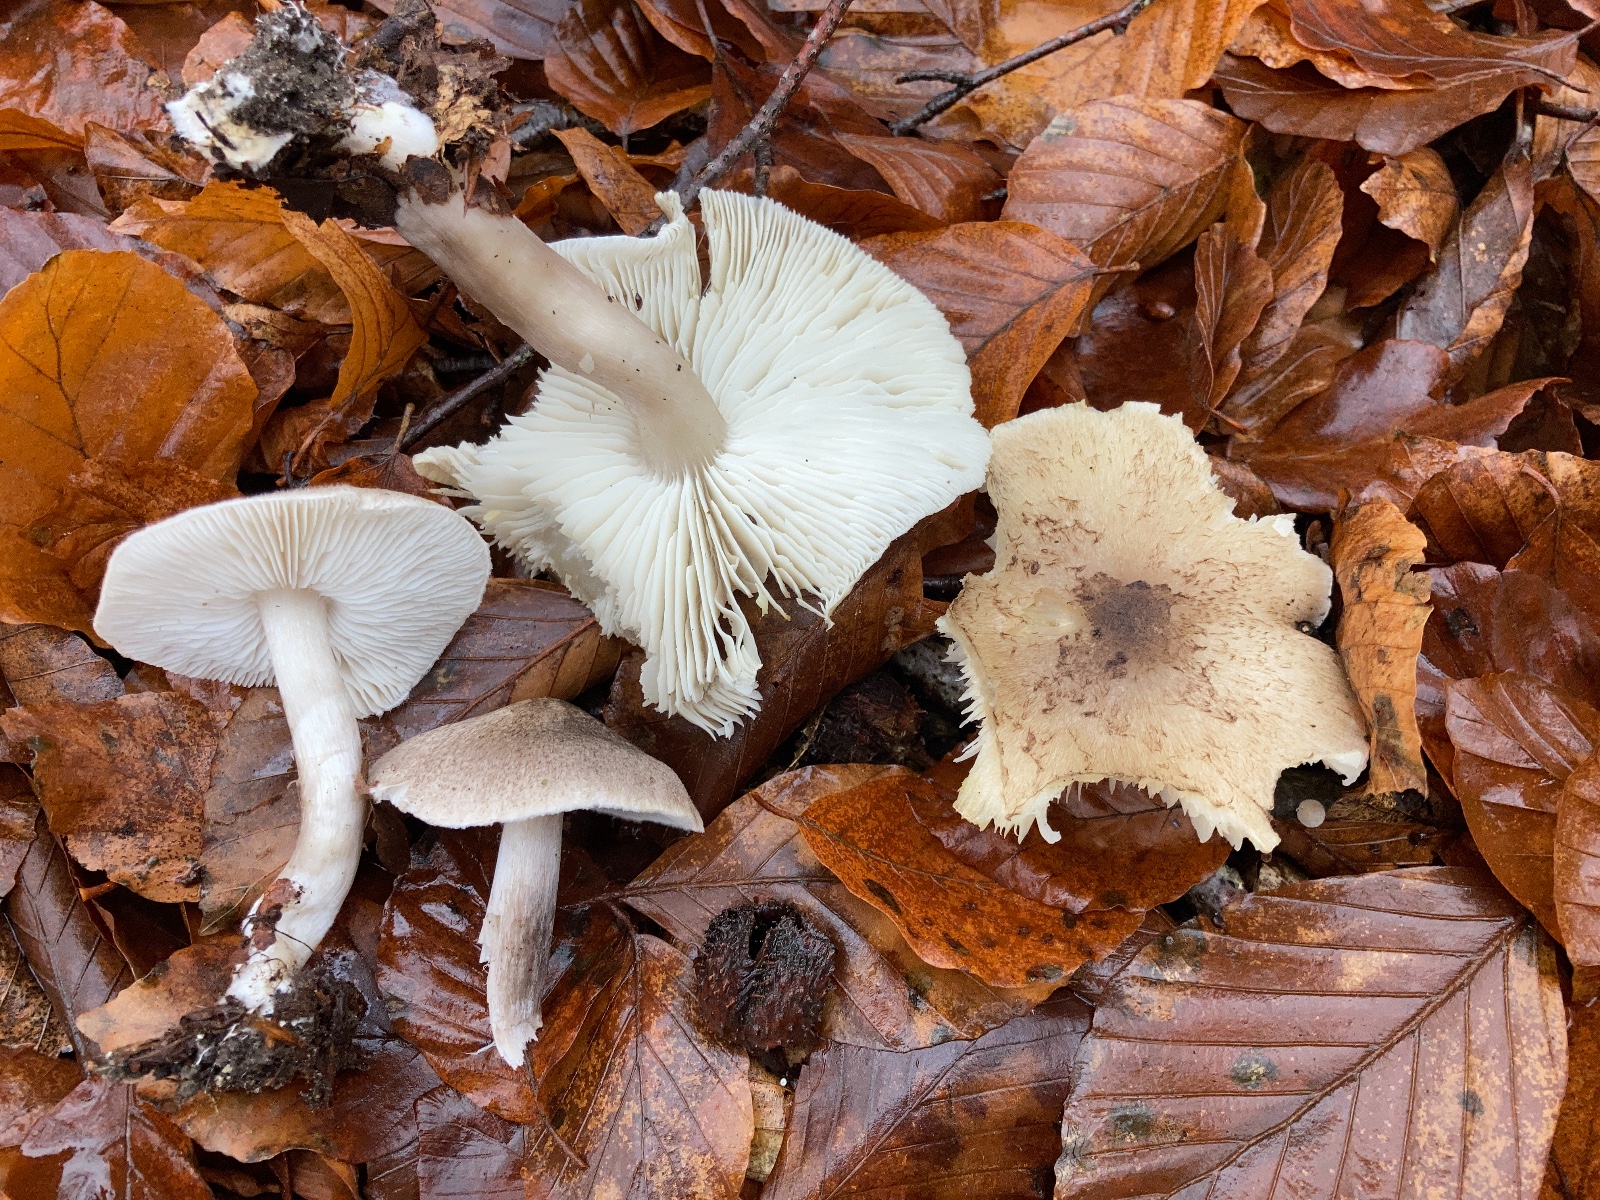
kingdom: Fungi
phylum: Basidiomycota
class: Agaricomycetes
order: Agaricales
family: Tricholomataceae
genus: Tricholoma
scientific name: Tricholoma scalpturatum
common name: gulplettet ridderhat
